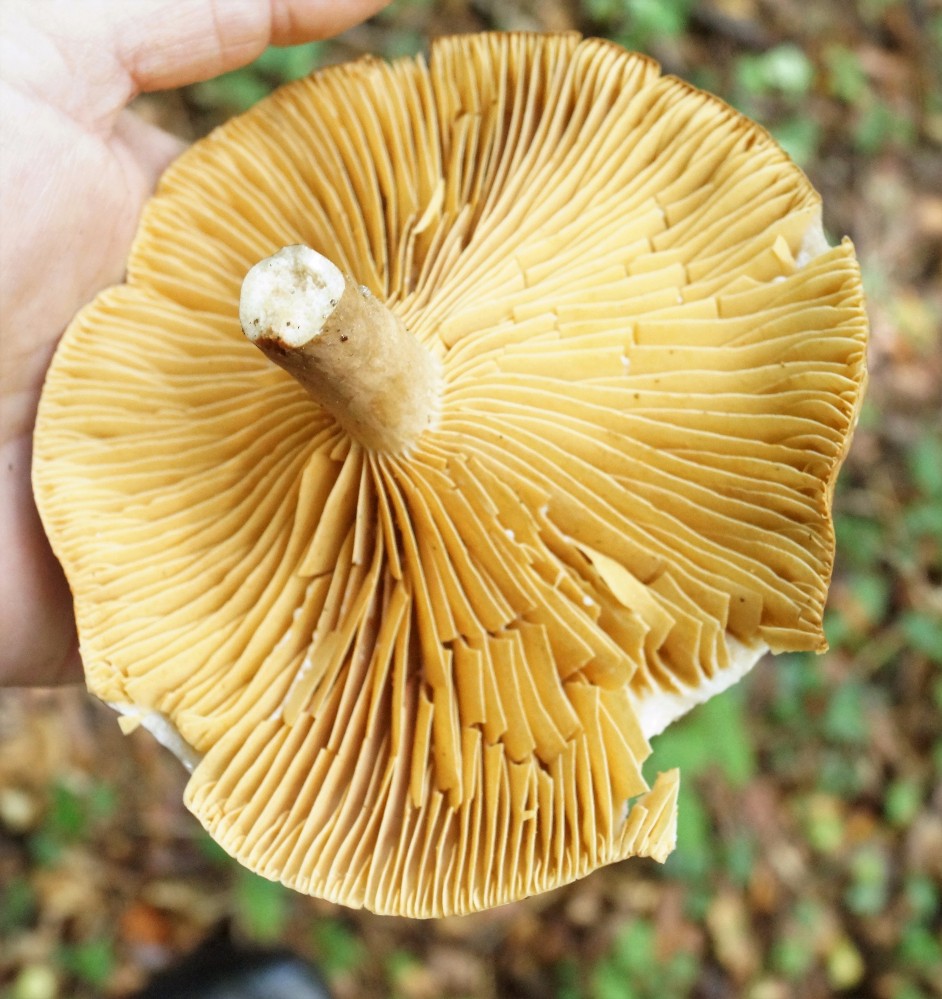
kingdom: Fungi
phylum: Basidiomycota
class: Agaricomycetes
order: Russulales
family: Russulaceae
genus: Lactarius
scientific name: Lactarius pyrogalus
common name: hassel-mælkehat
